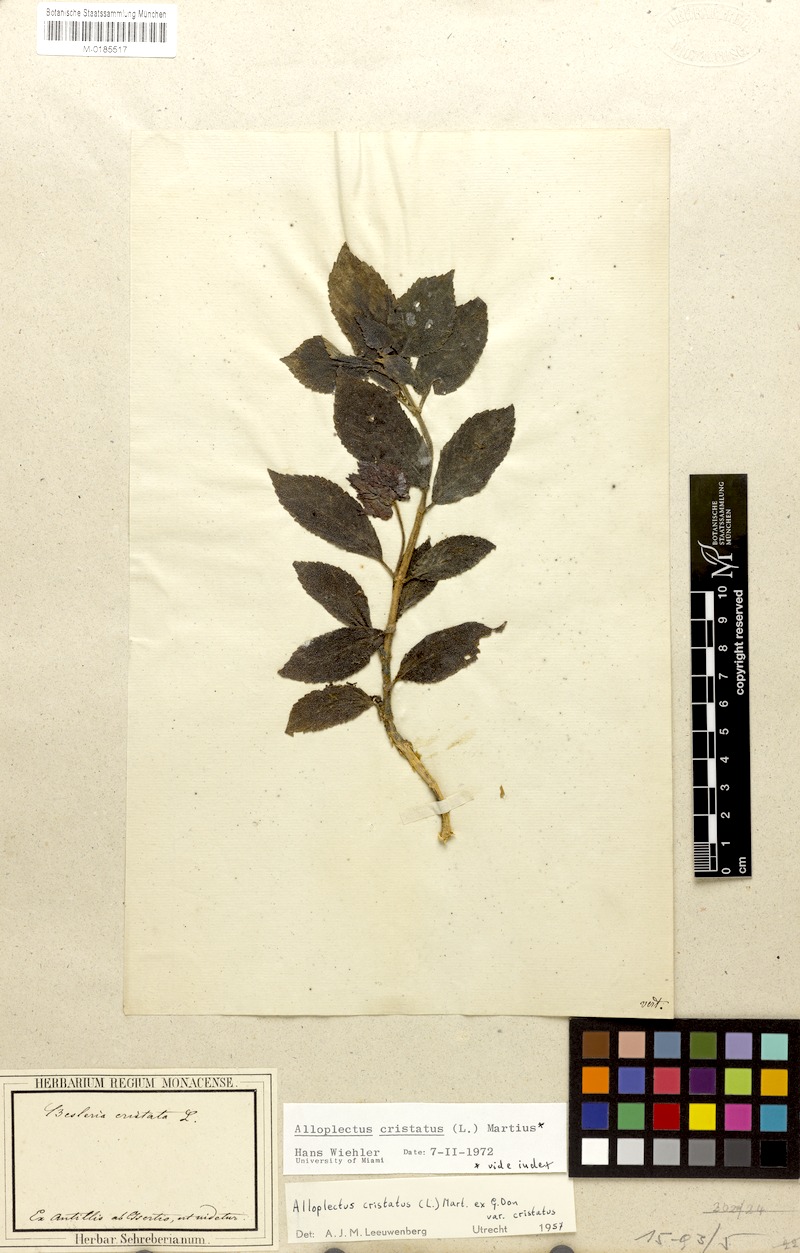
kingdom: Plantae
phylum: Tracheophyta
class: Magnoliopsida
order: Lamiales
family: Gesneriaceae
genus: Crantzia
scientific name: Crantzia cristata
